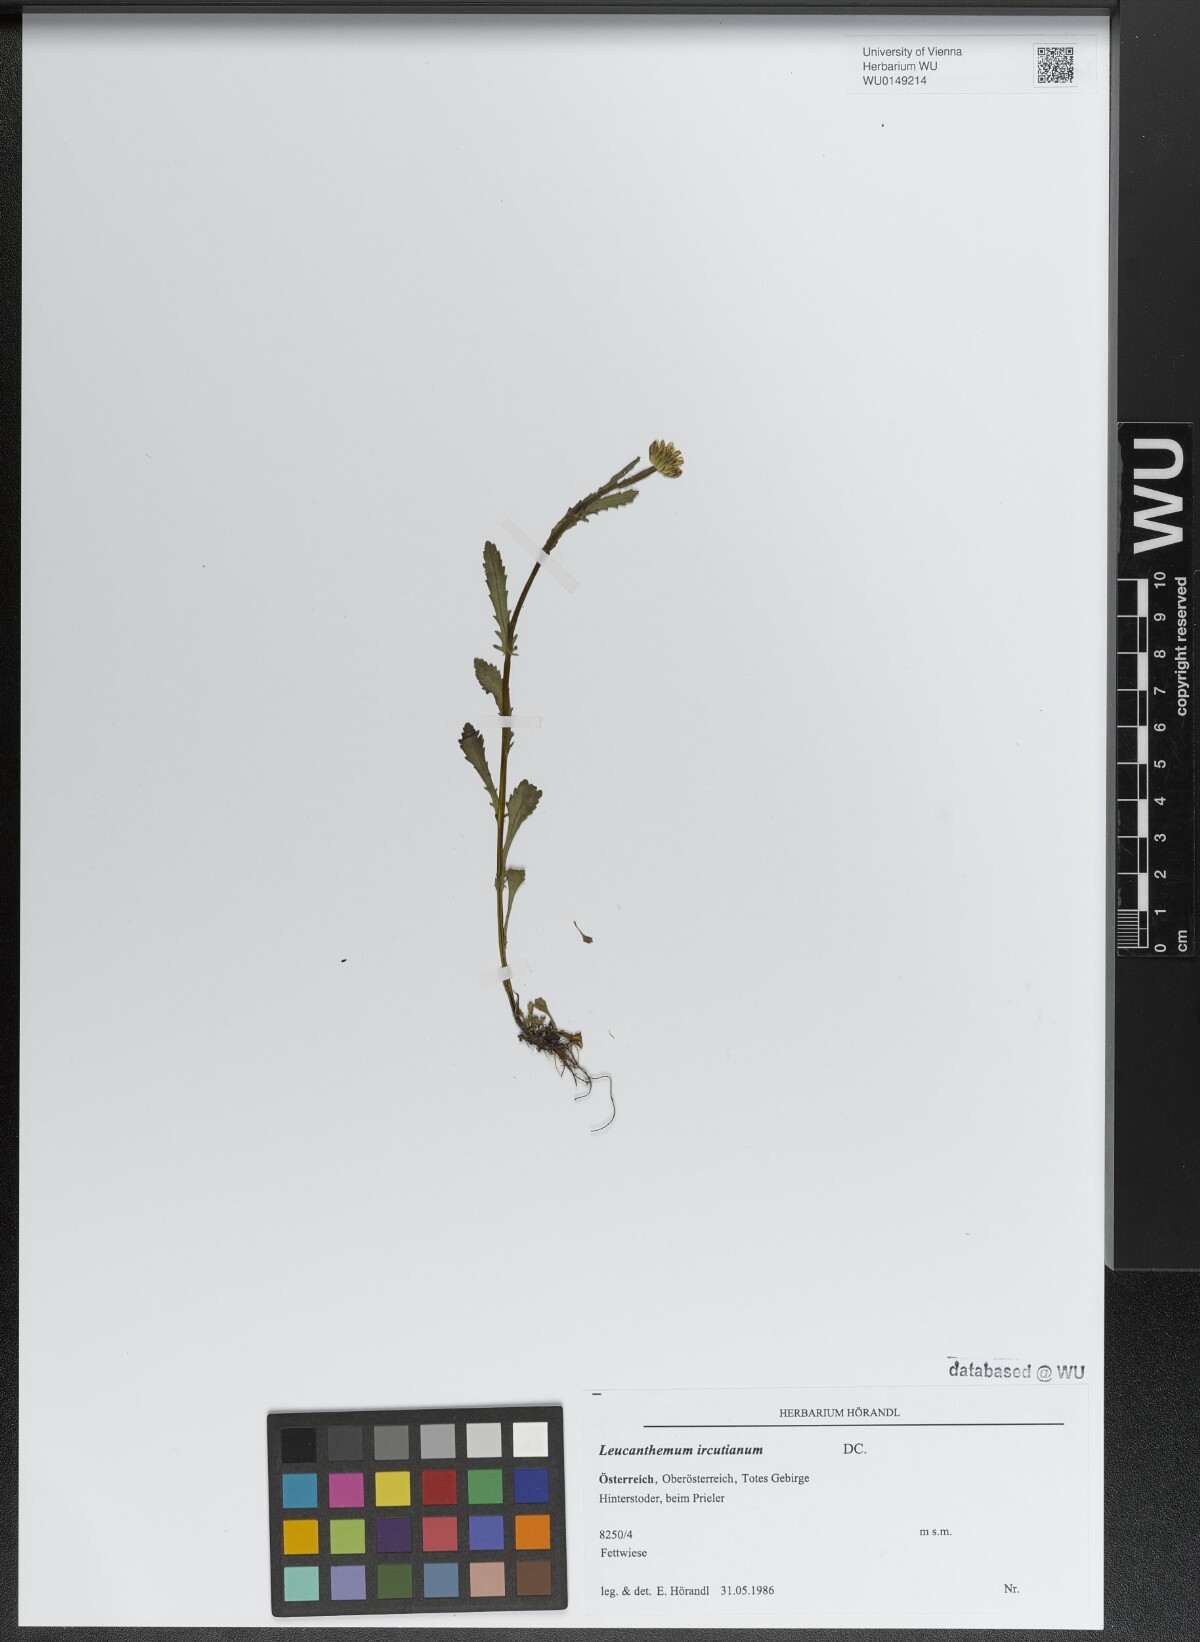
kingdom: Plantae
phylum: Tracheophyta
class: Magnoliopsida
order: Asterales
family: Asteraceae
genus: Leucanthemum
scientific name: Leucanthemum ircutianum
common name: Daisy
